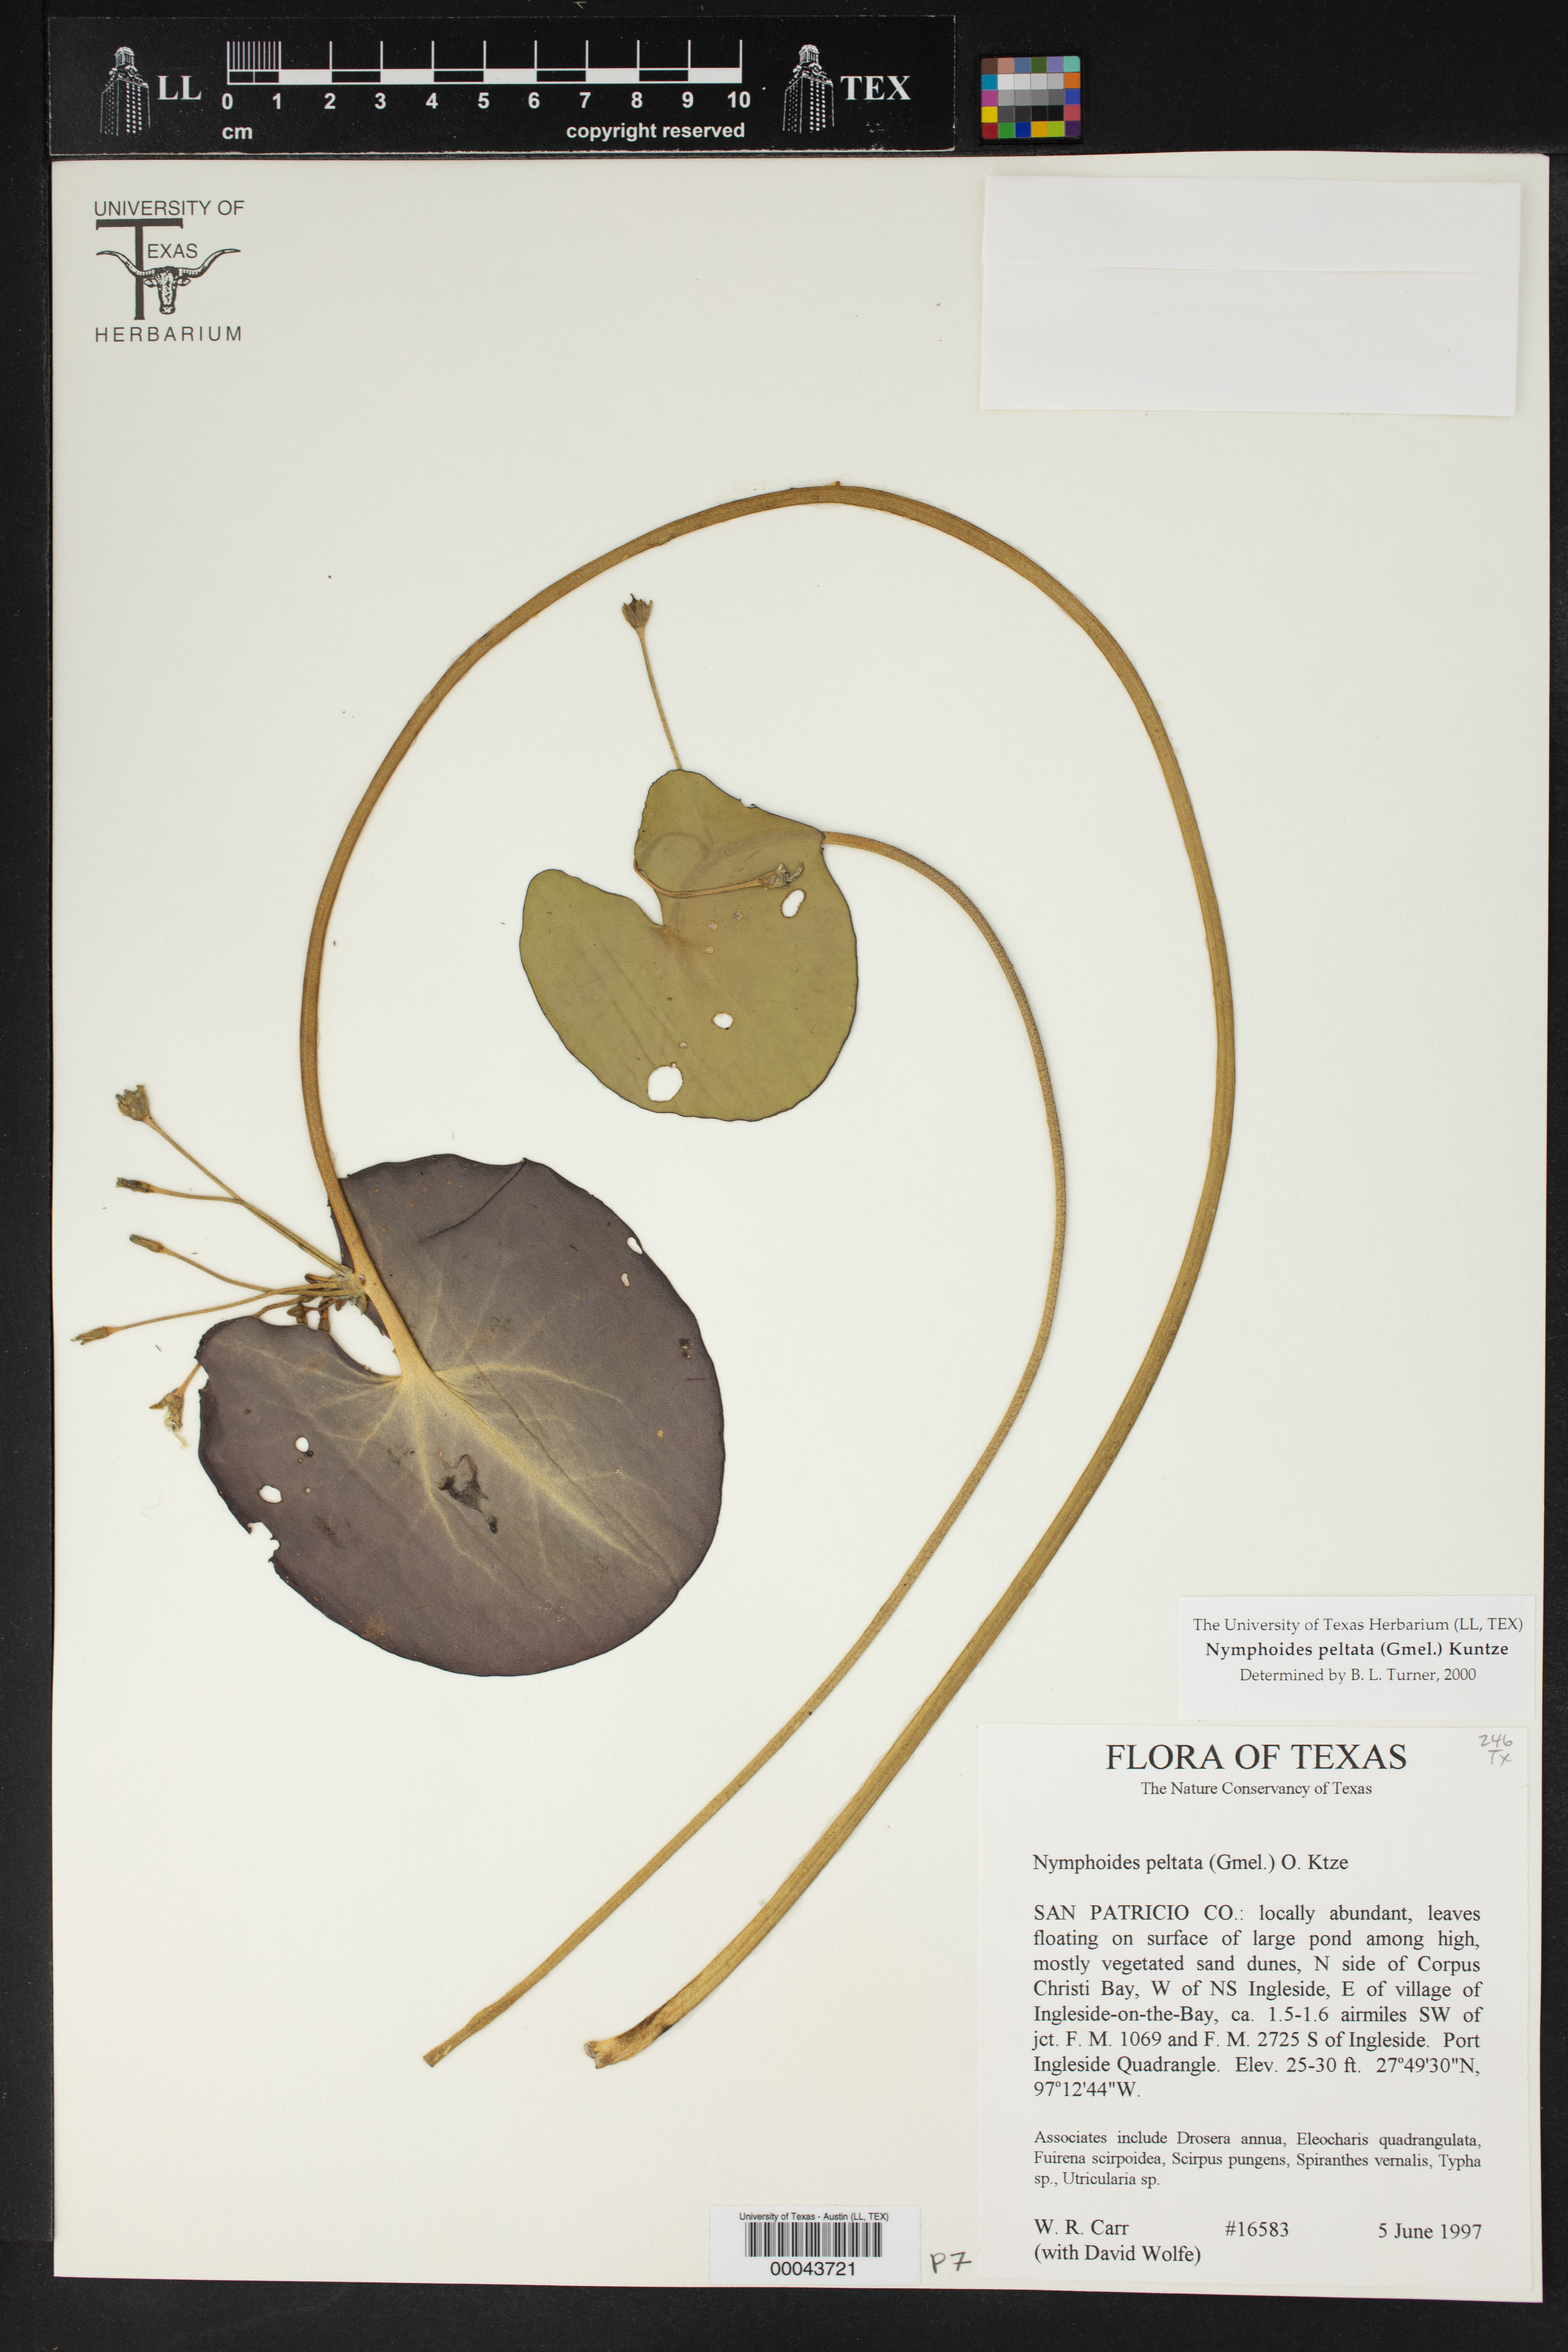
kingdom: Plantae
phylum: Tracheophyta
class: Magnoliopsida
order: Asterales
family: Menyanthaceae
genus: Nymphoides
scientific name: Nymphoides peltata
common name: Fringed water-lily
